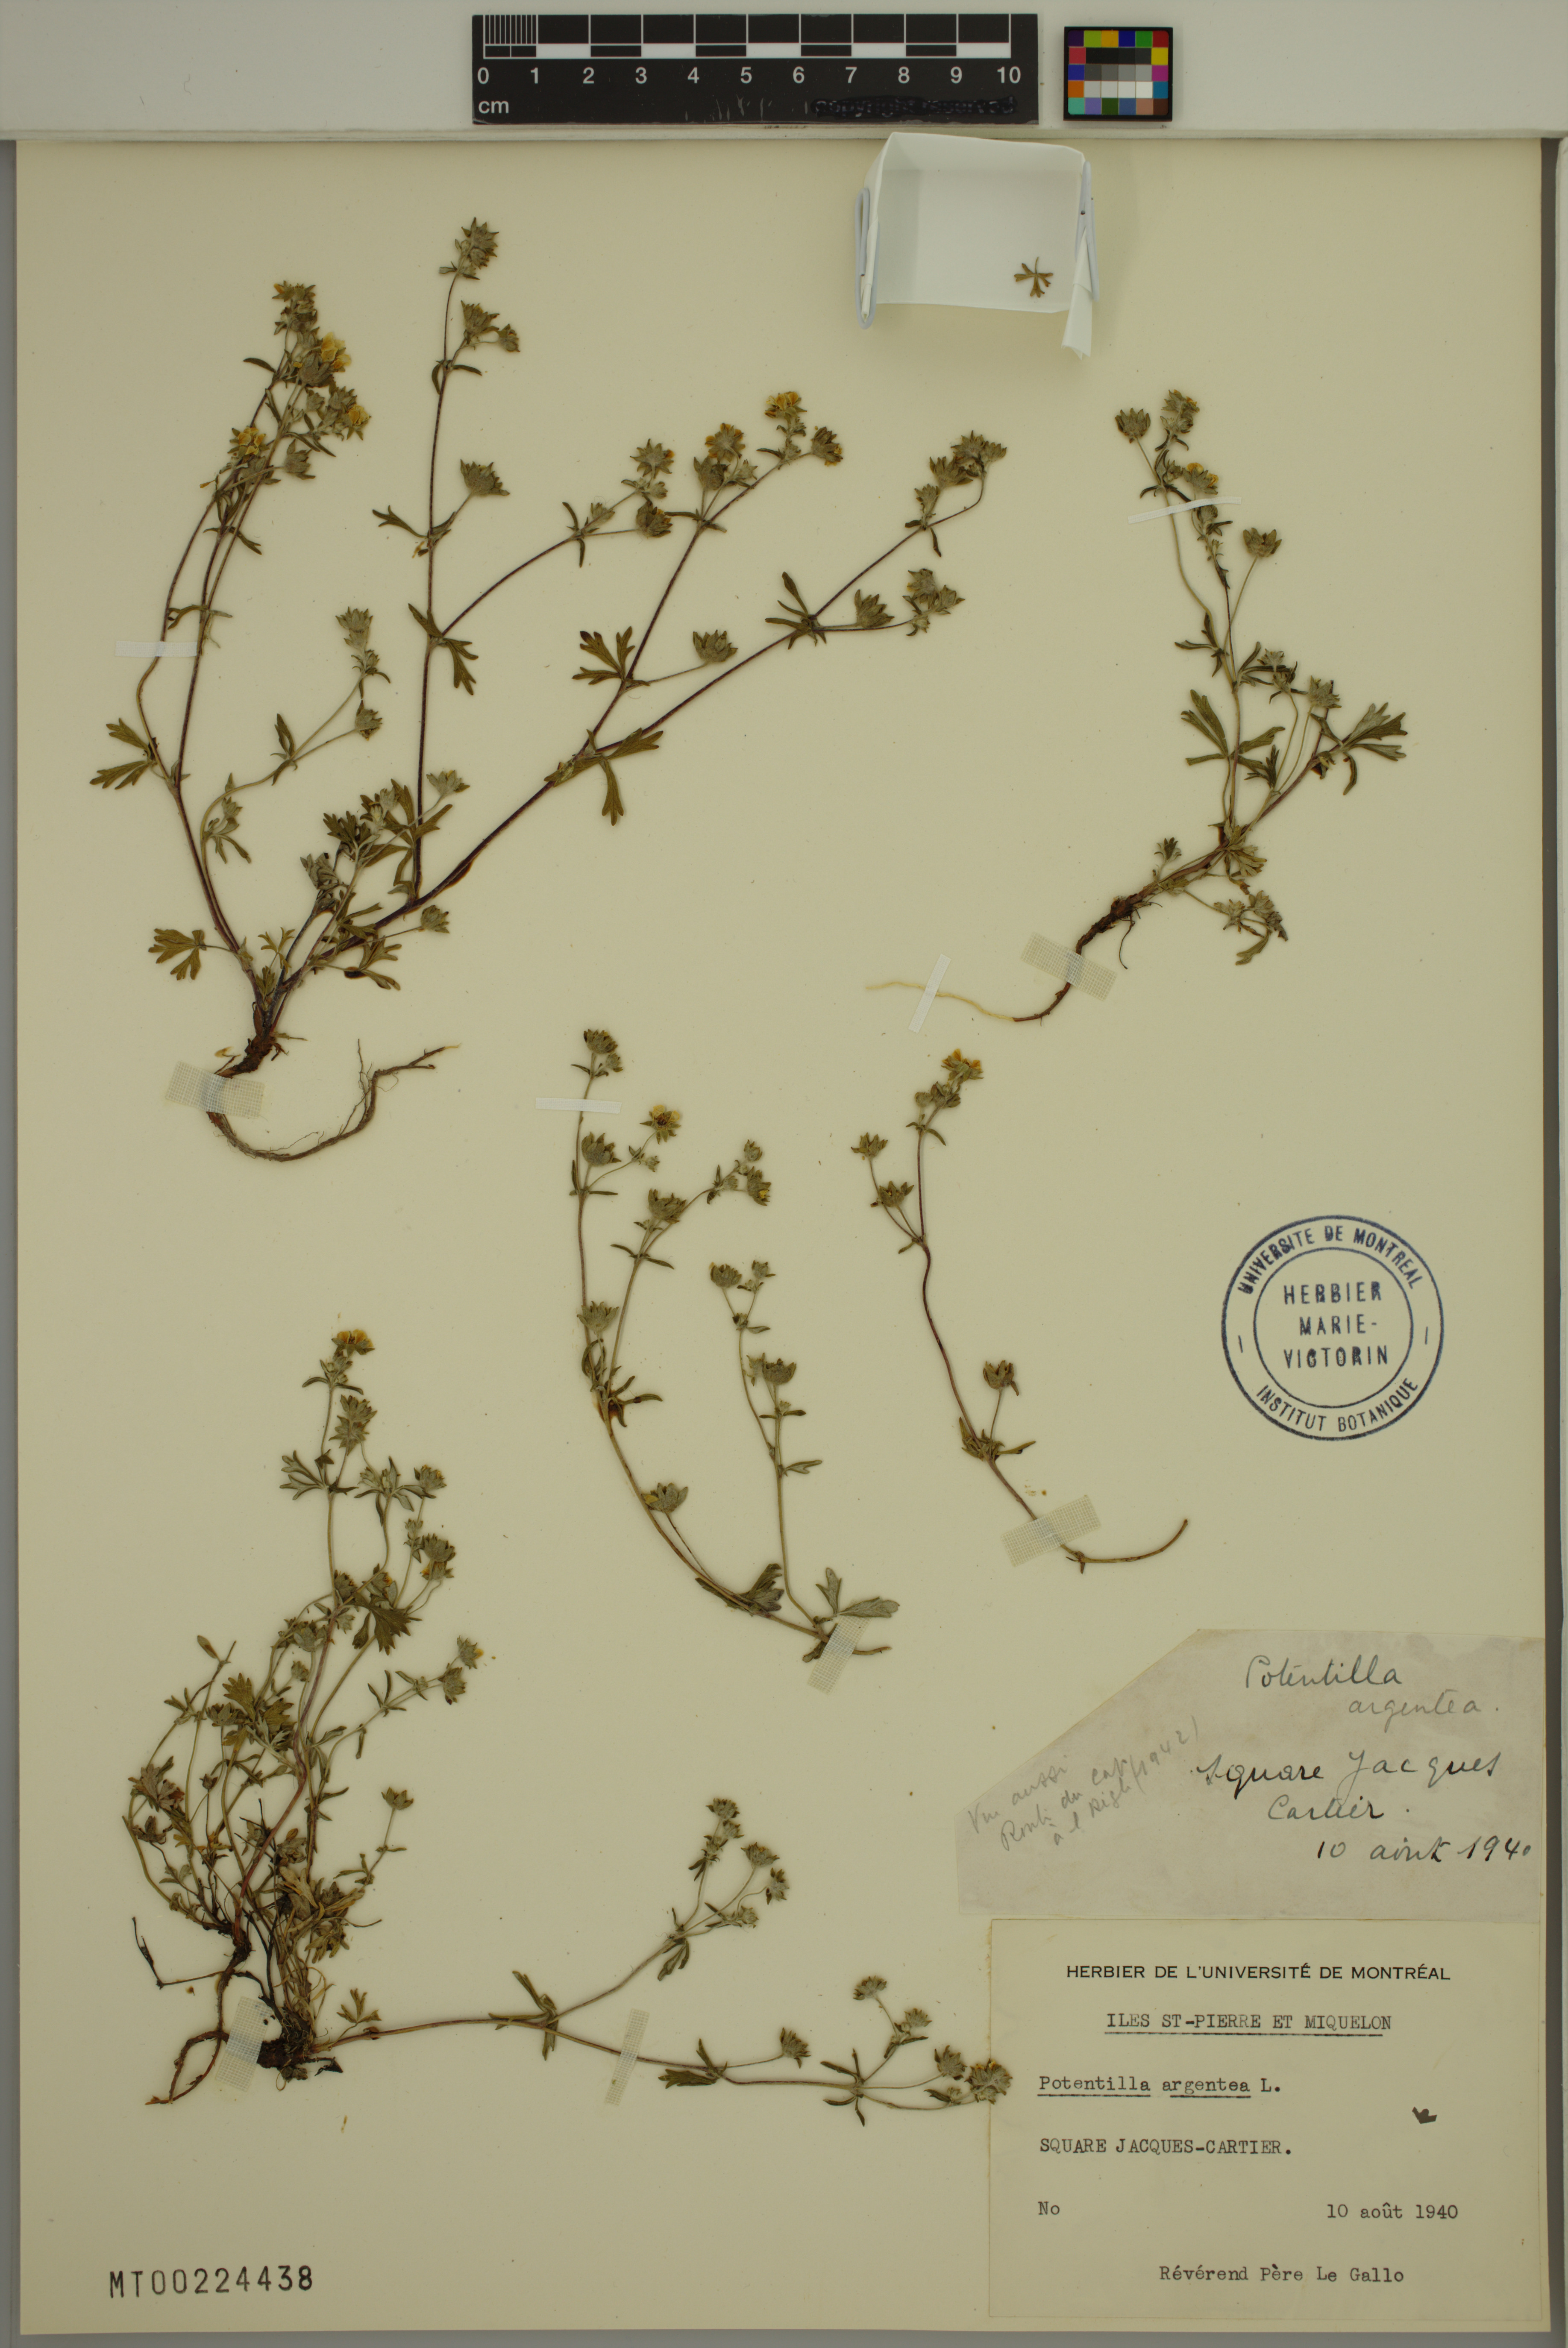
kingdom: Plantae
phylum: Tracheophyta
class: Magnoliopsida
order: Rosales
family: Rosaceae
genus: Potentilla
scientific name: Potentilla argentea
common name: Hoary cinquefoil
